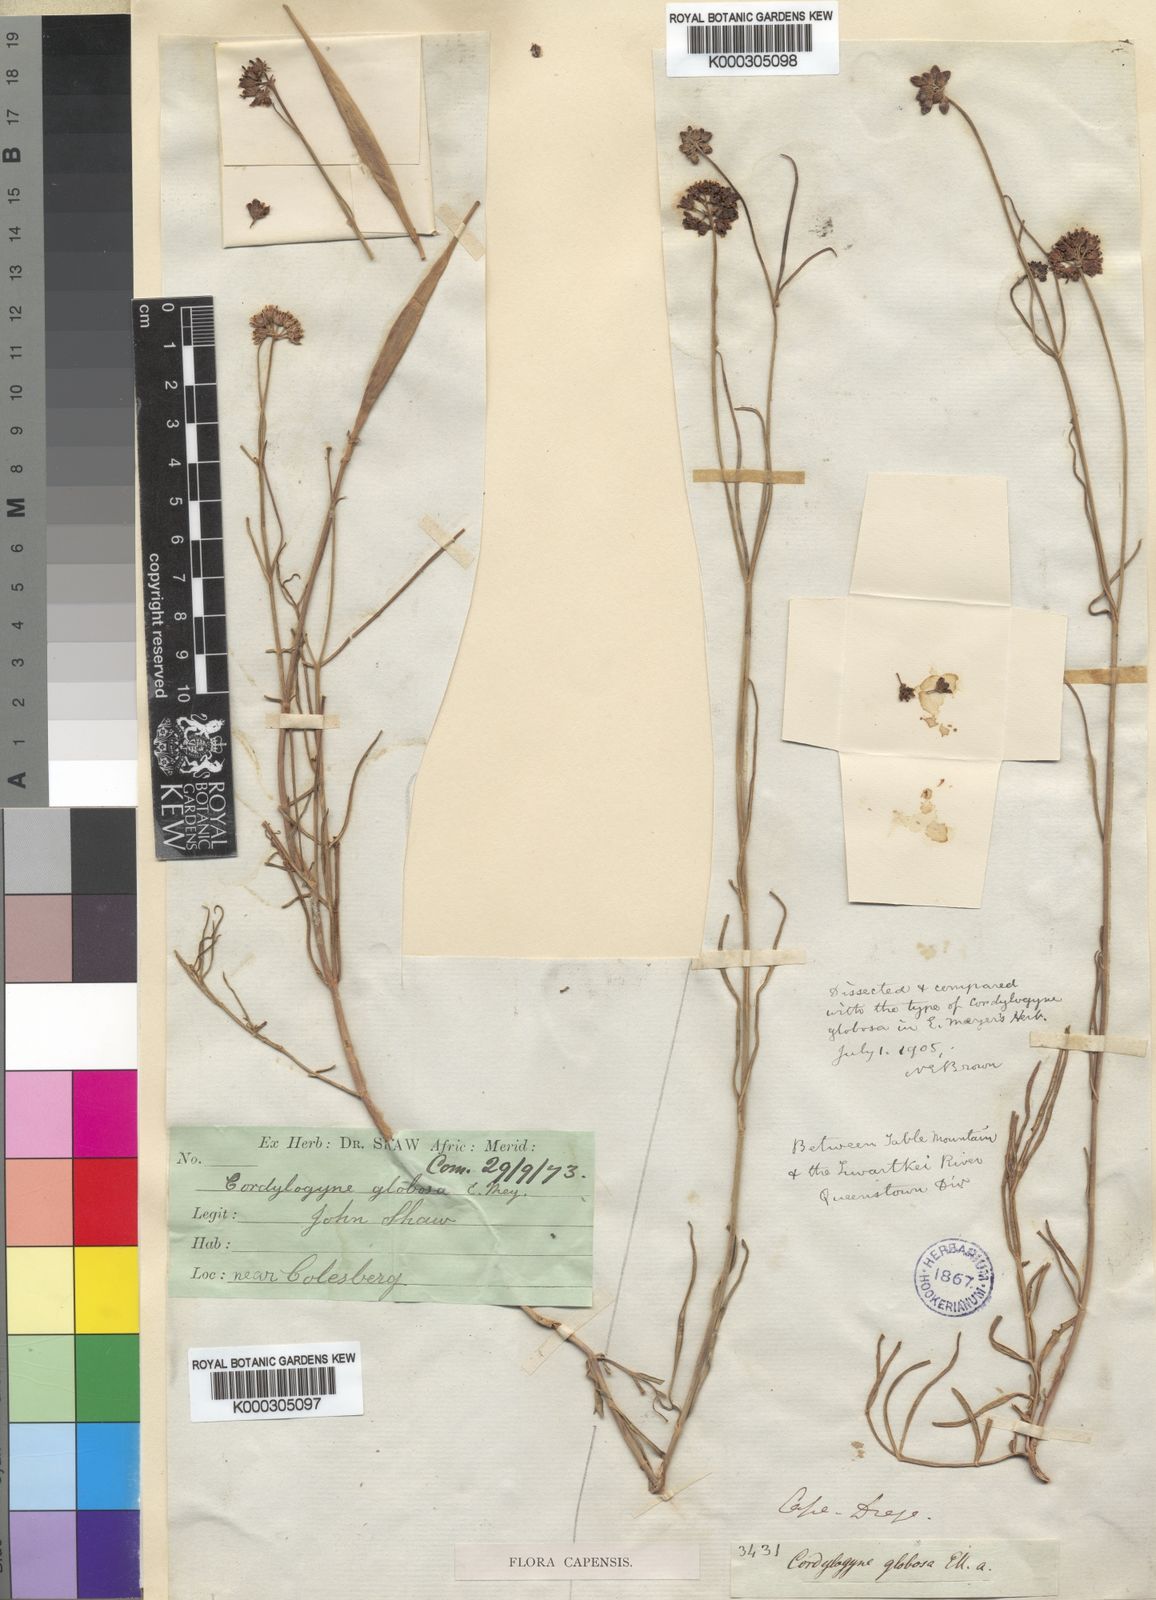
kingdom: Plantae
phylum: Tracheophyta
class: Magnoliopsida
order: Gentianales
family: Apocynaceae
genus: Cordylogyne
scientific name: Cordylogyne globosa
